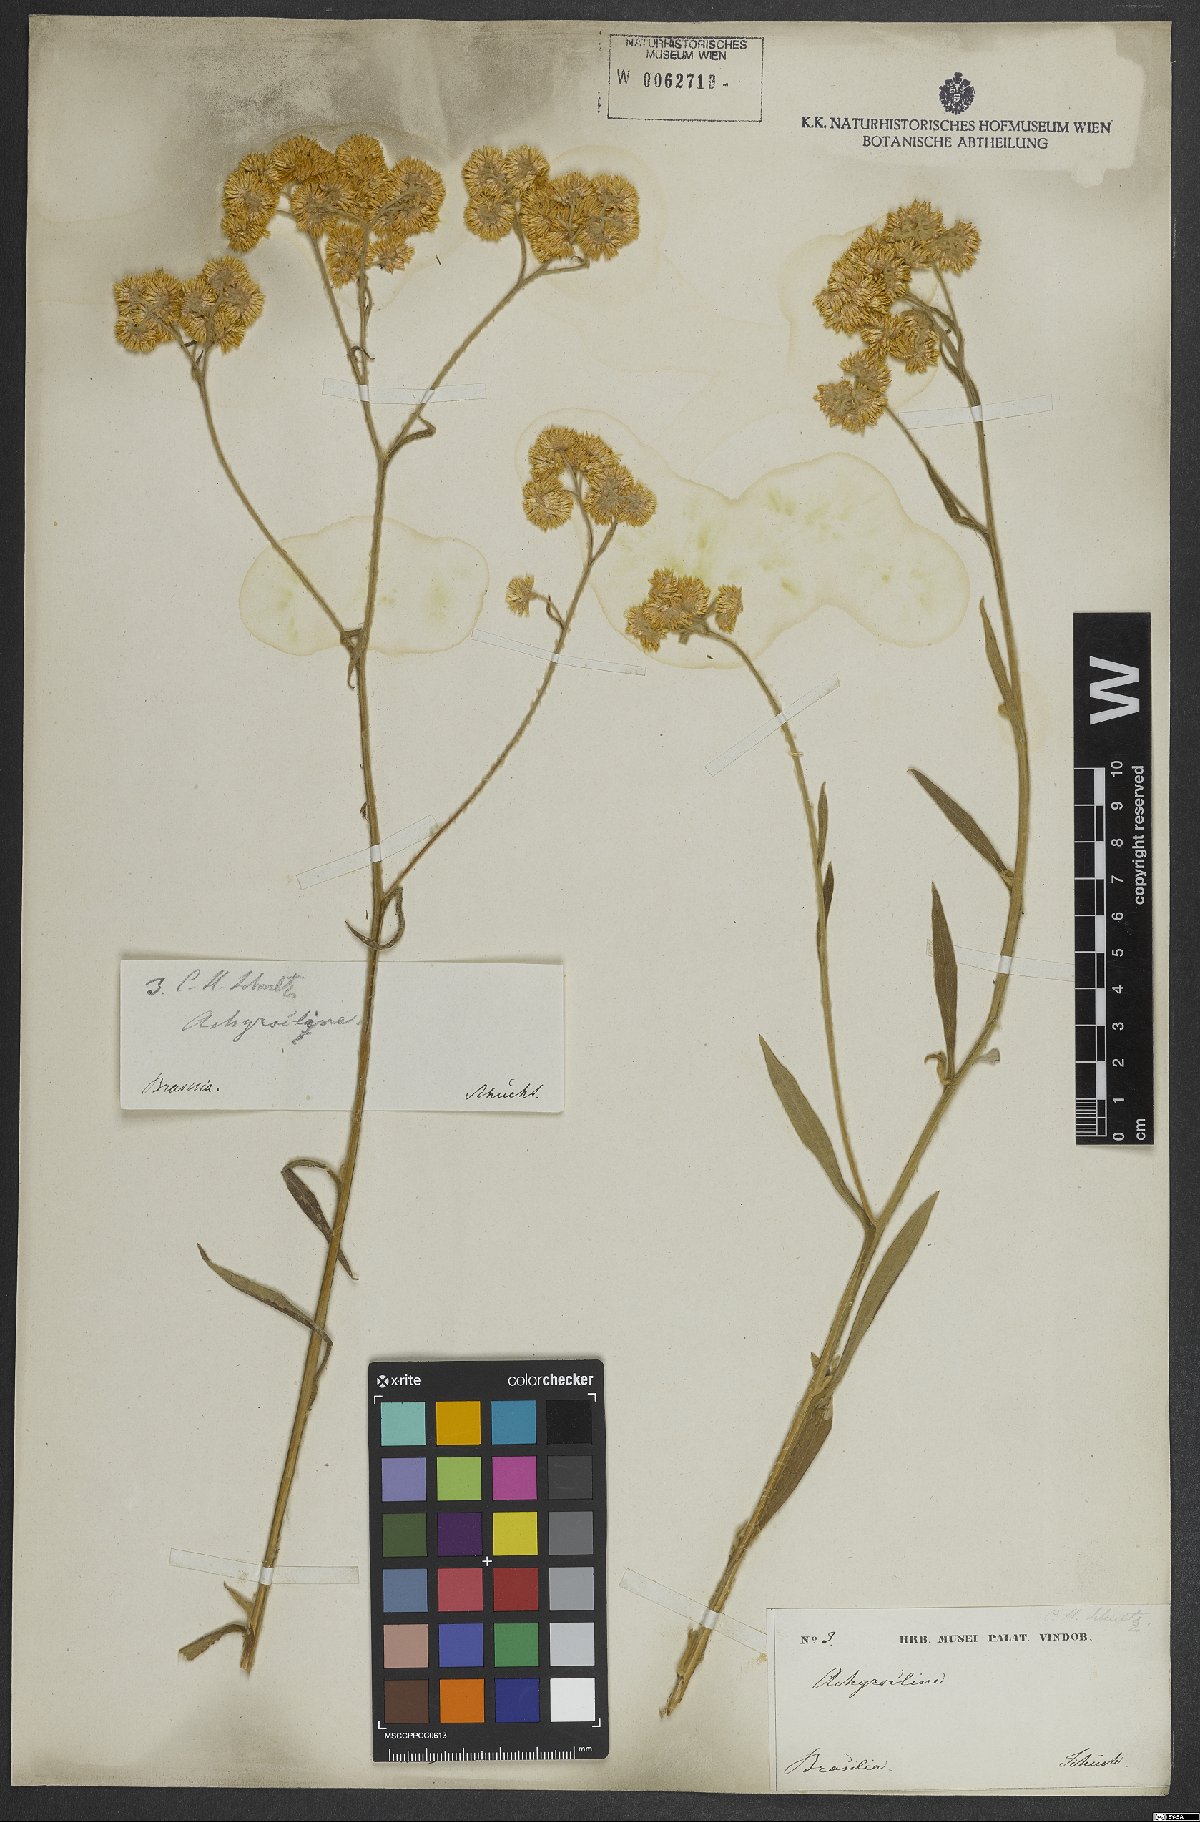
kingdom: Plantae
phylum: Tracheophyta
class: Magnoliopsida
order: Asterales
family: Asteraceae
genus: Achyrocline
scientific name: Achyrocline
